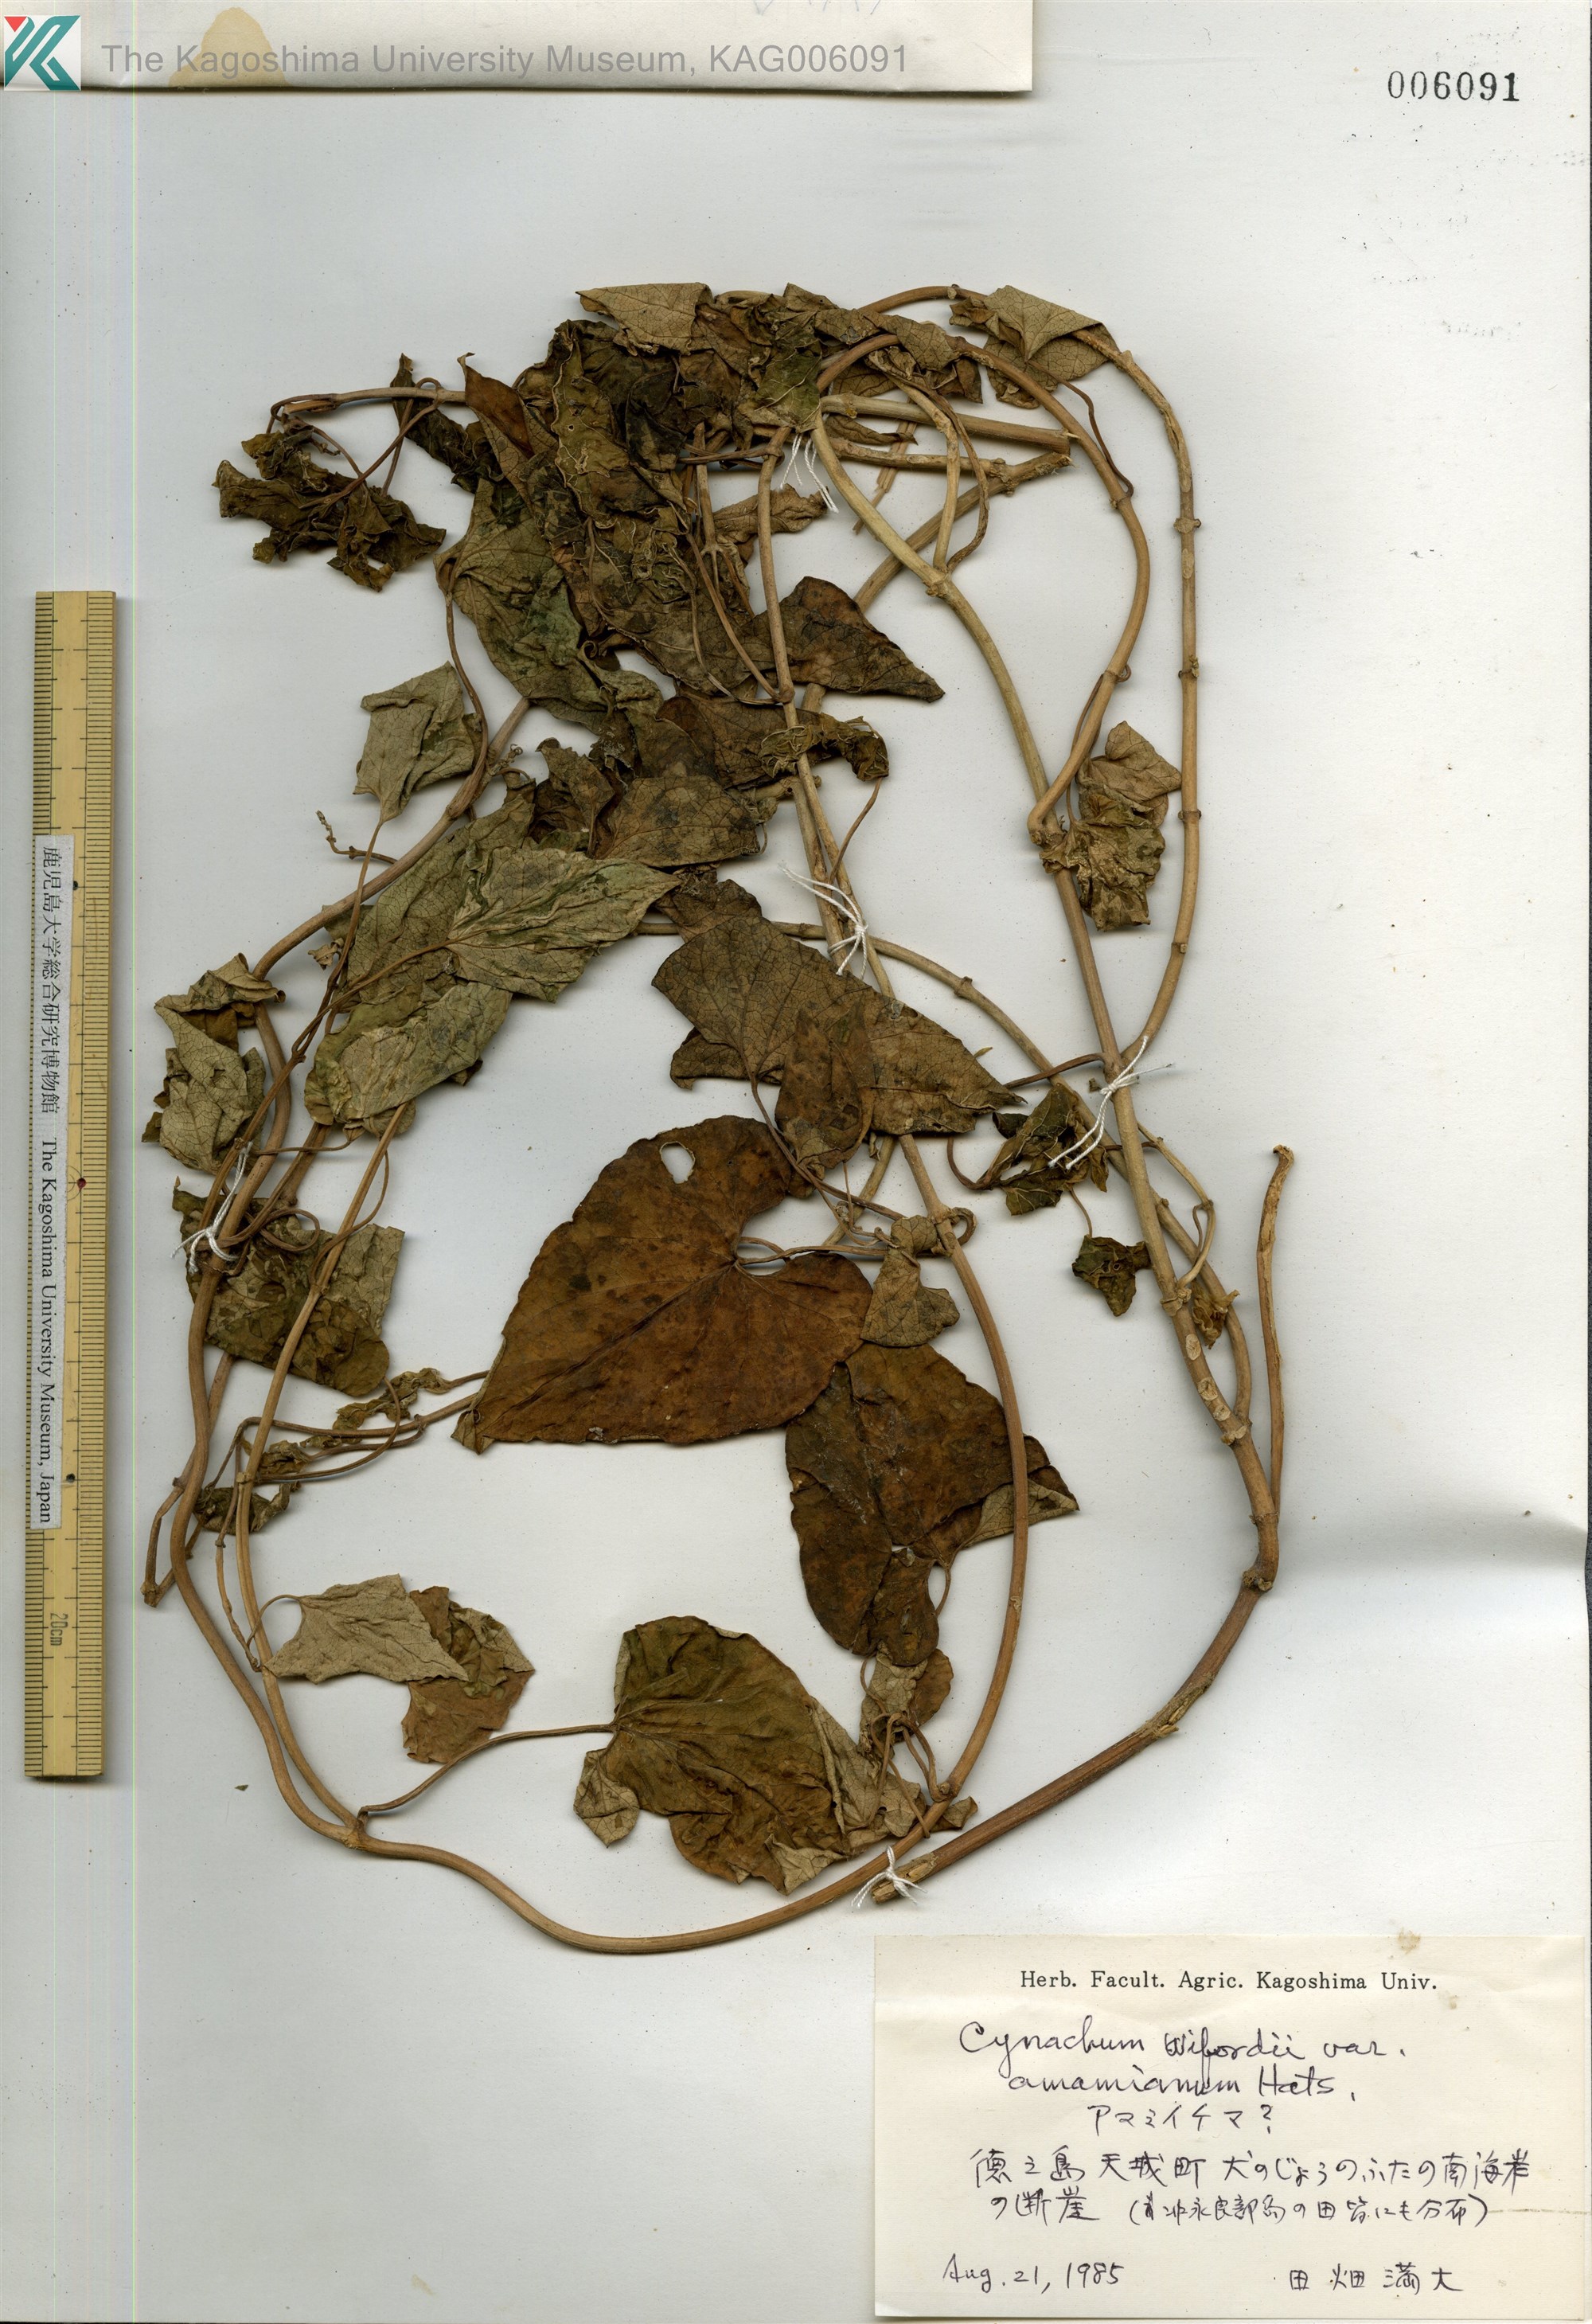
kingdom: Plantae
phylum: Tracheophyta
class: Magnoliopsida
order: Gentianales
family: Apocynaceae
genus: Cynanchum
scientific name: Cynanchum boudieri
